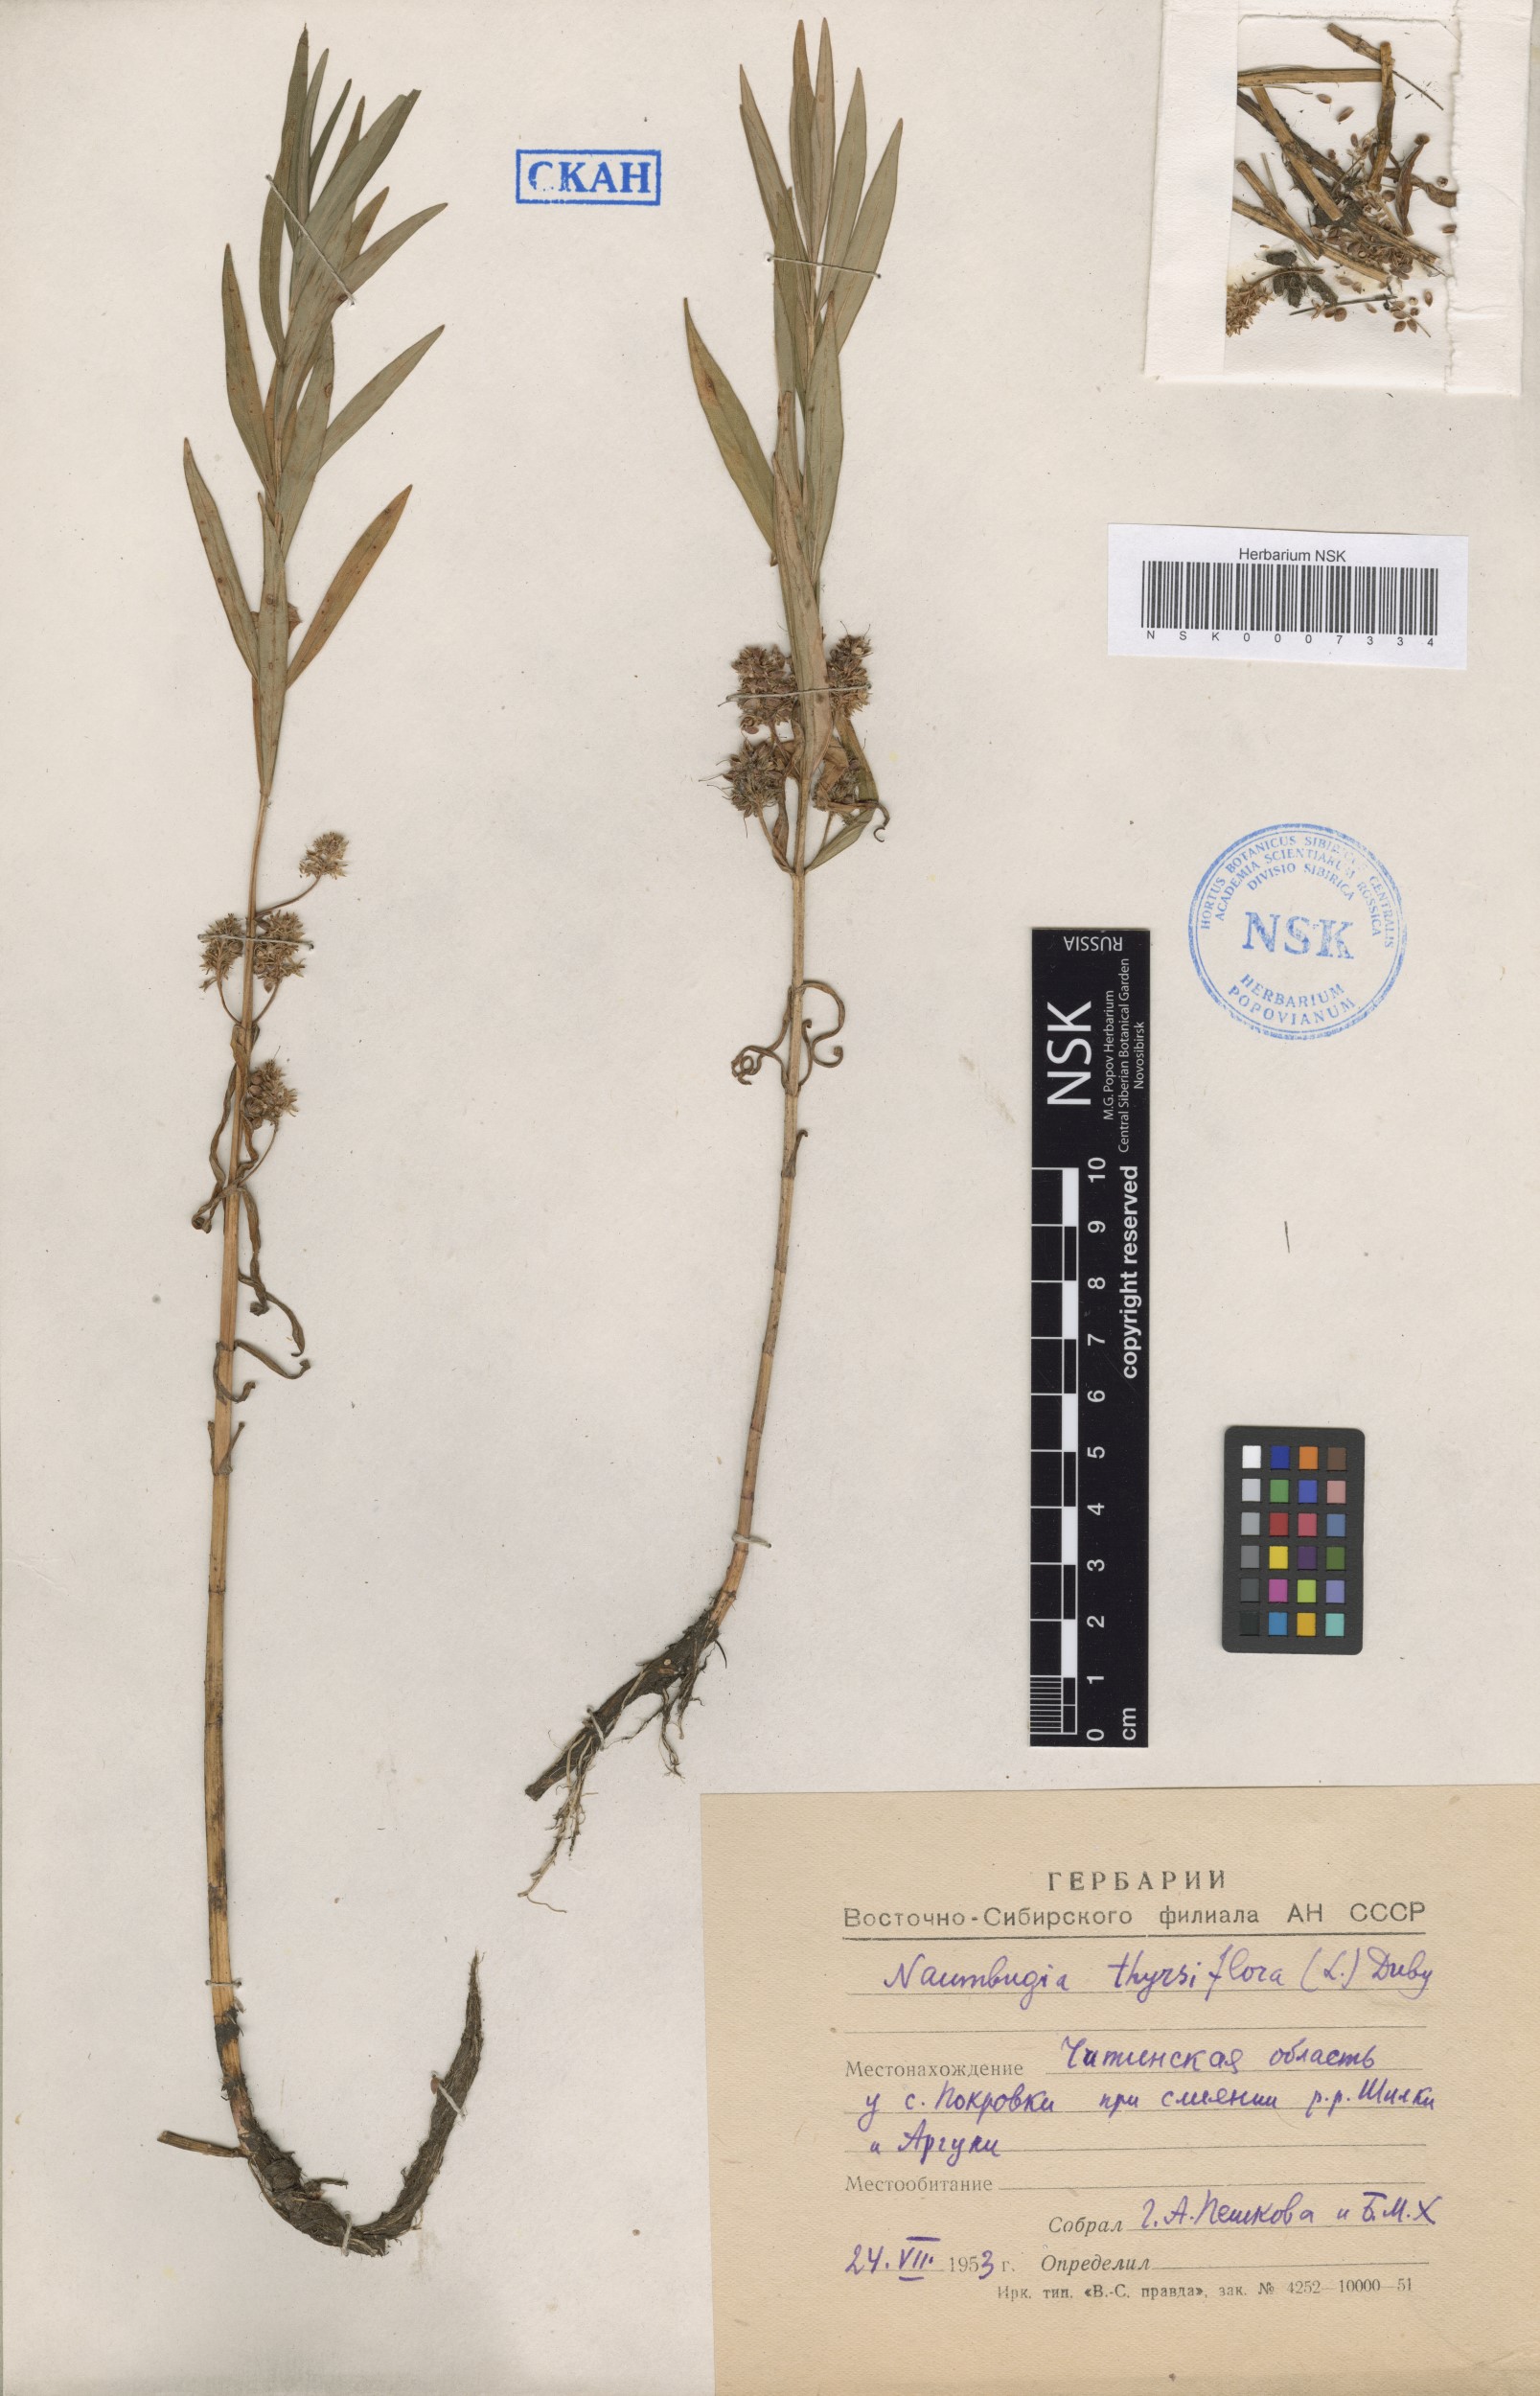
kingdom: Plantae
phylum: Tracheophyta
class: Magnoliopsida
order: Ericales
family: Primulaceae
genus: Lysimachia
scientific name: Lysimachia thyrsiflora
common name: Tufted loosestrife
